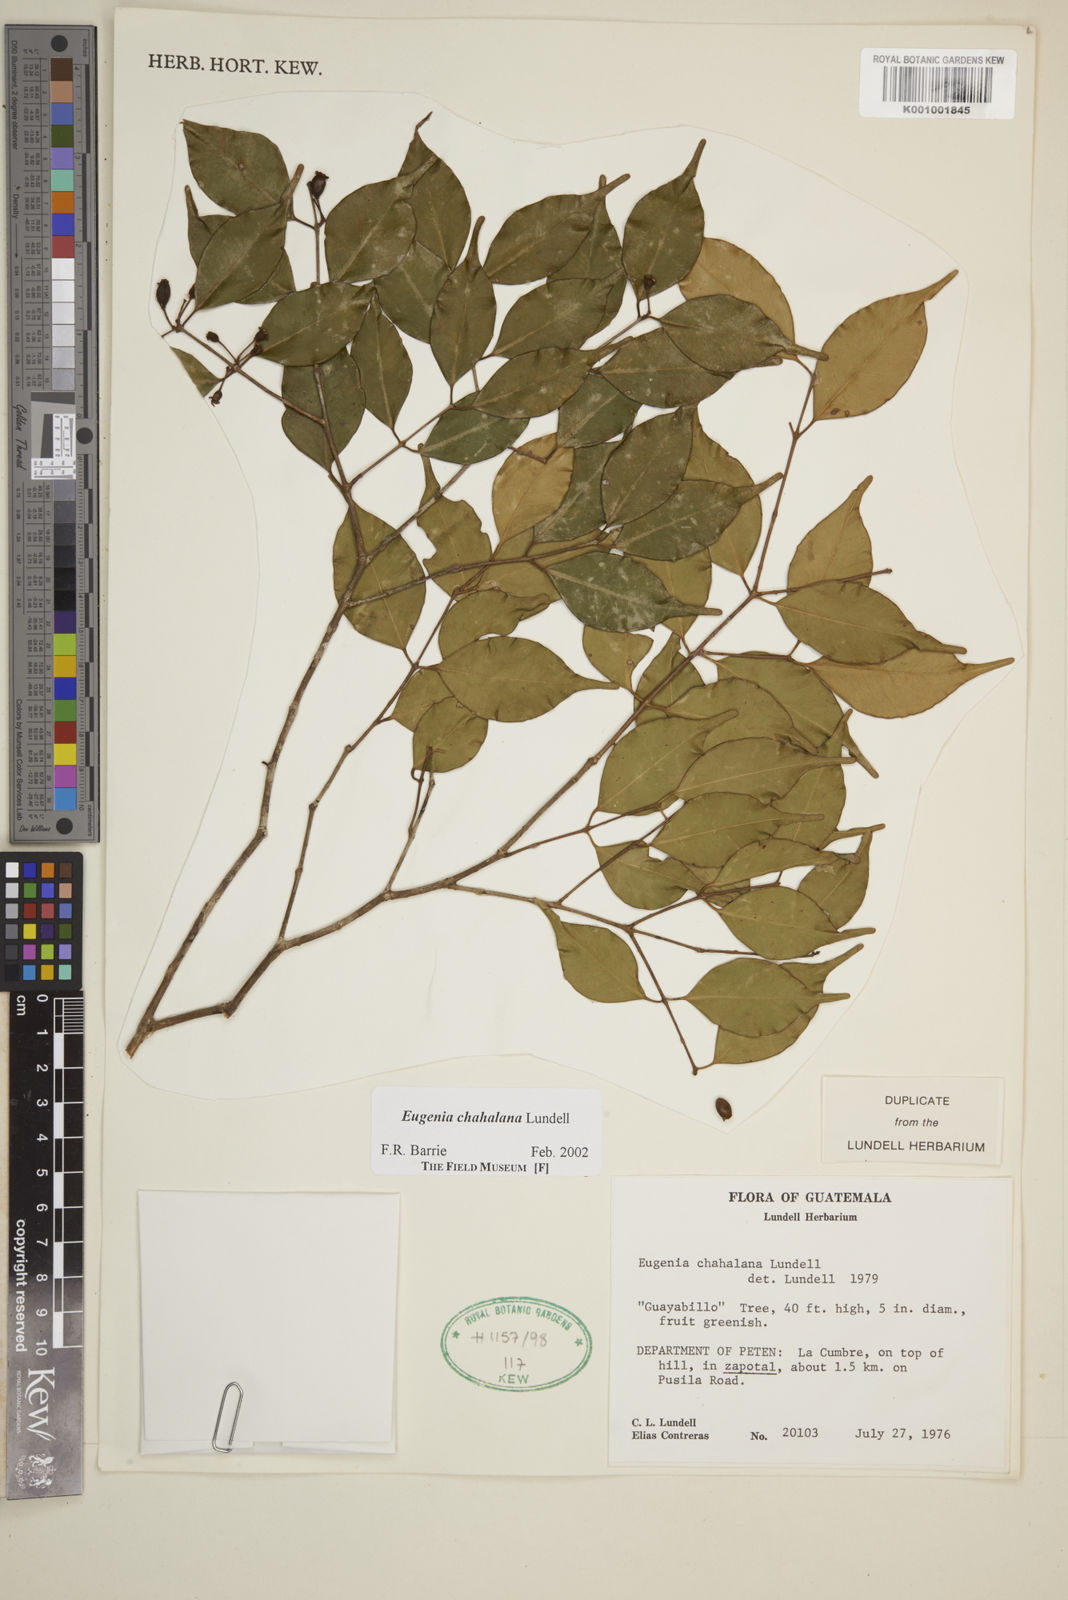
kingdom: Plantae
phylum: Tracheophyta
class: Magnoliopsida
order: Myrtales
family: Myrtaceae
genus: Eugenia
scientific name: Eugenia chahalana
